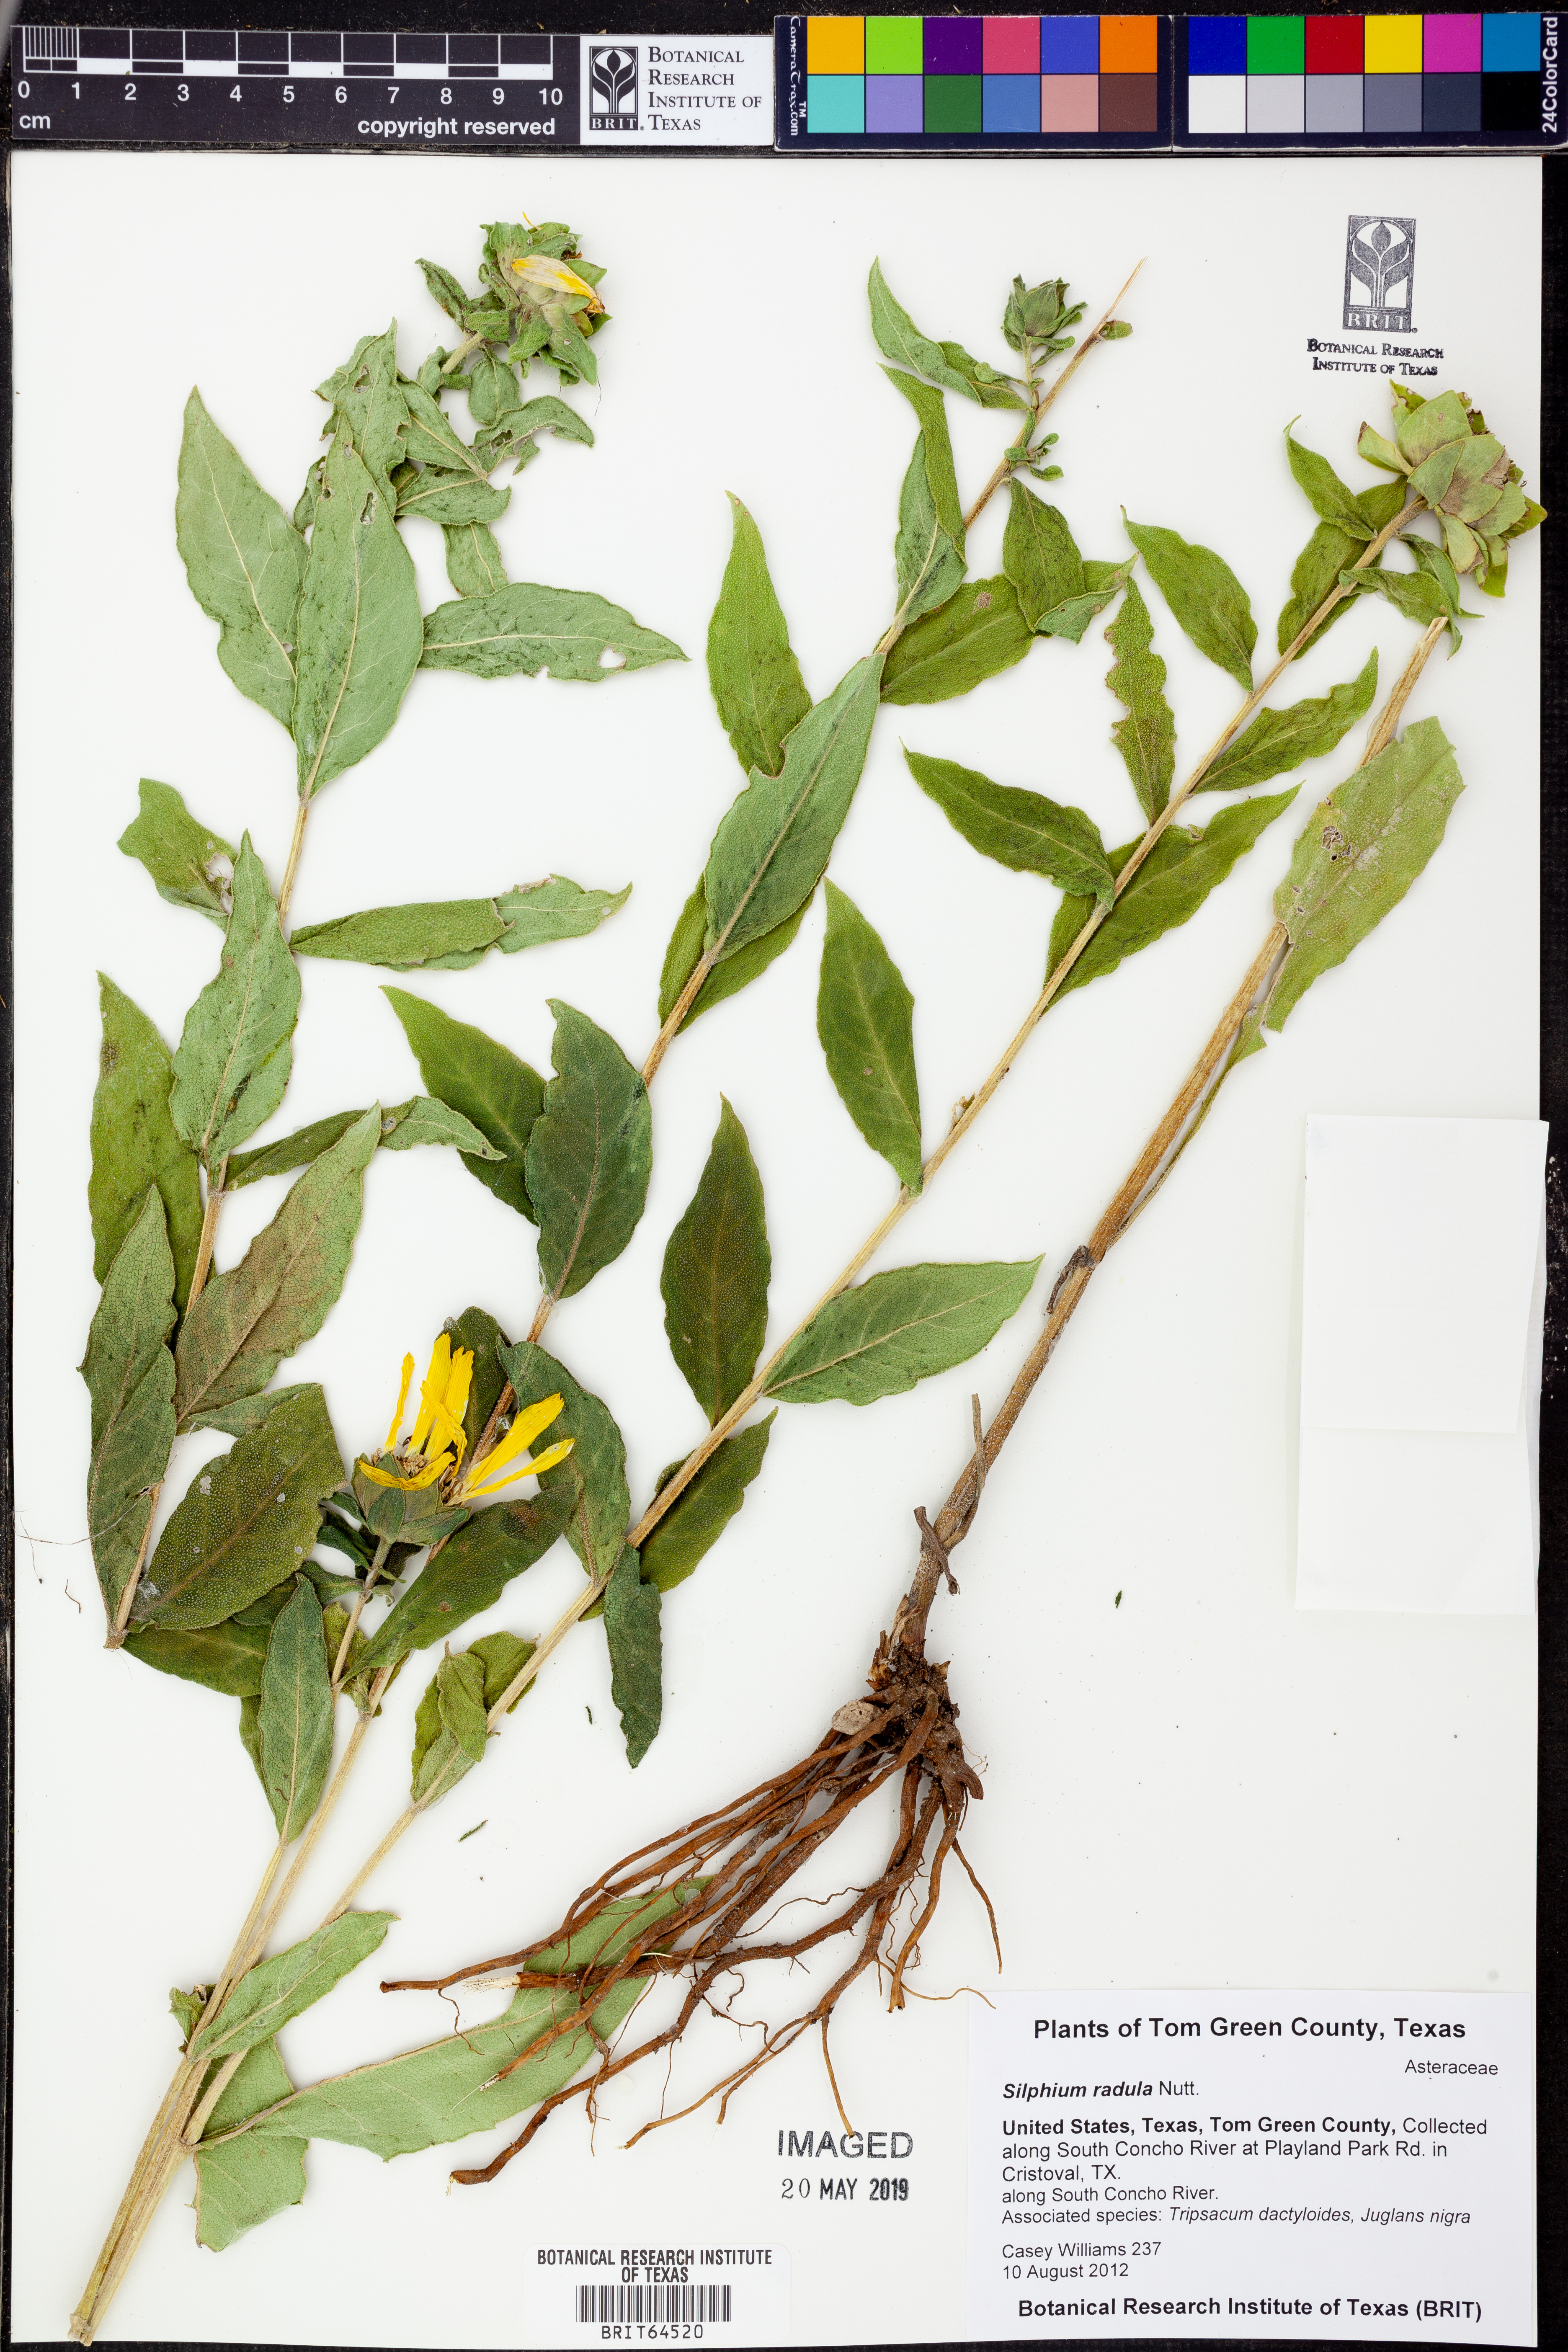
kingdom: Plantae
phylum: Tracheophyta
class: Magnoliopsida
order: Asterales
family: Asteraceae
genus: Silphium
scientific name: Silphium radula
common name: Roughleaf rosinweed
